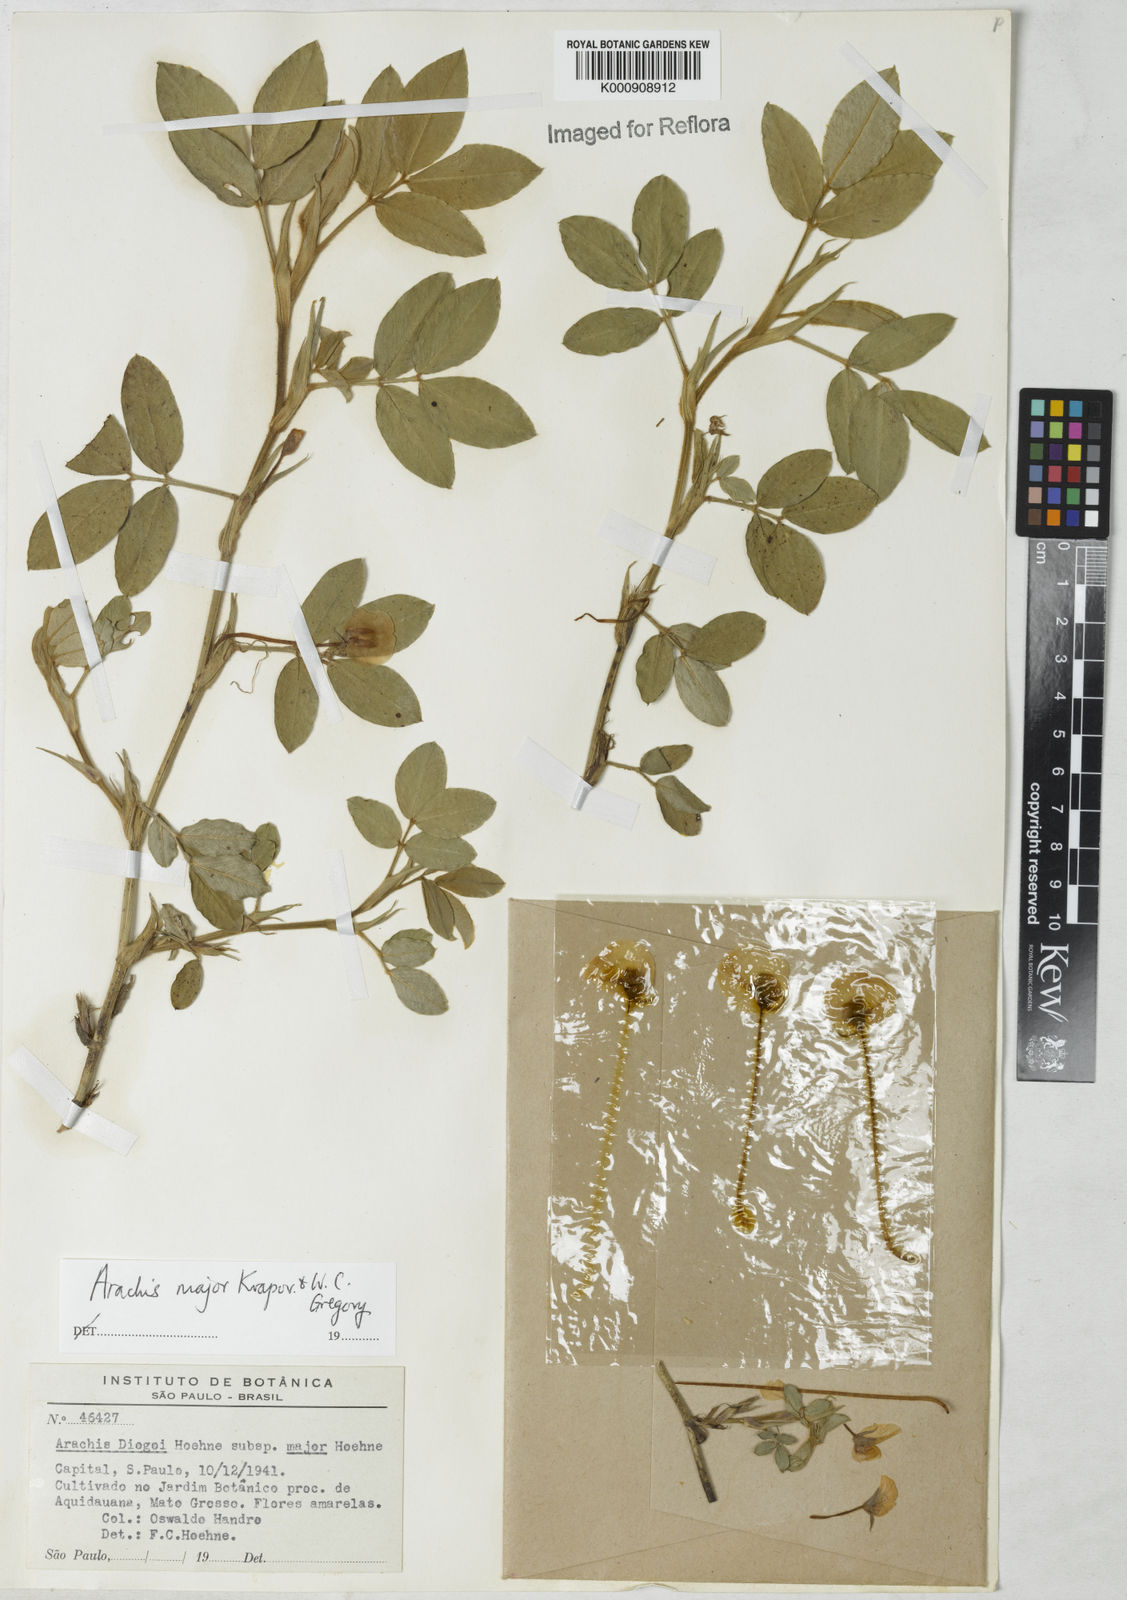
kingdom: Plantae
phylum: Tracheophyta
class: Magnoliopsida
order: Fabales
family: Fabaceae
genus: Arachis
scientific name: Arachis major
